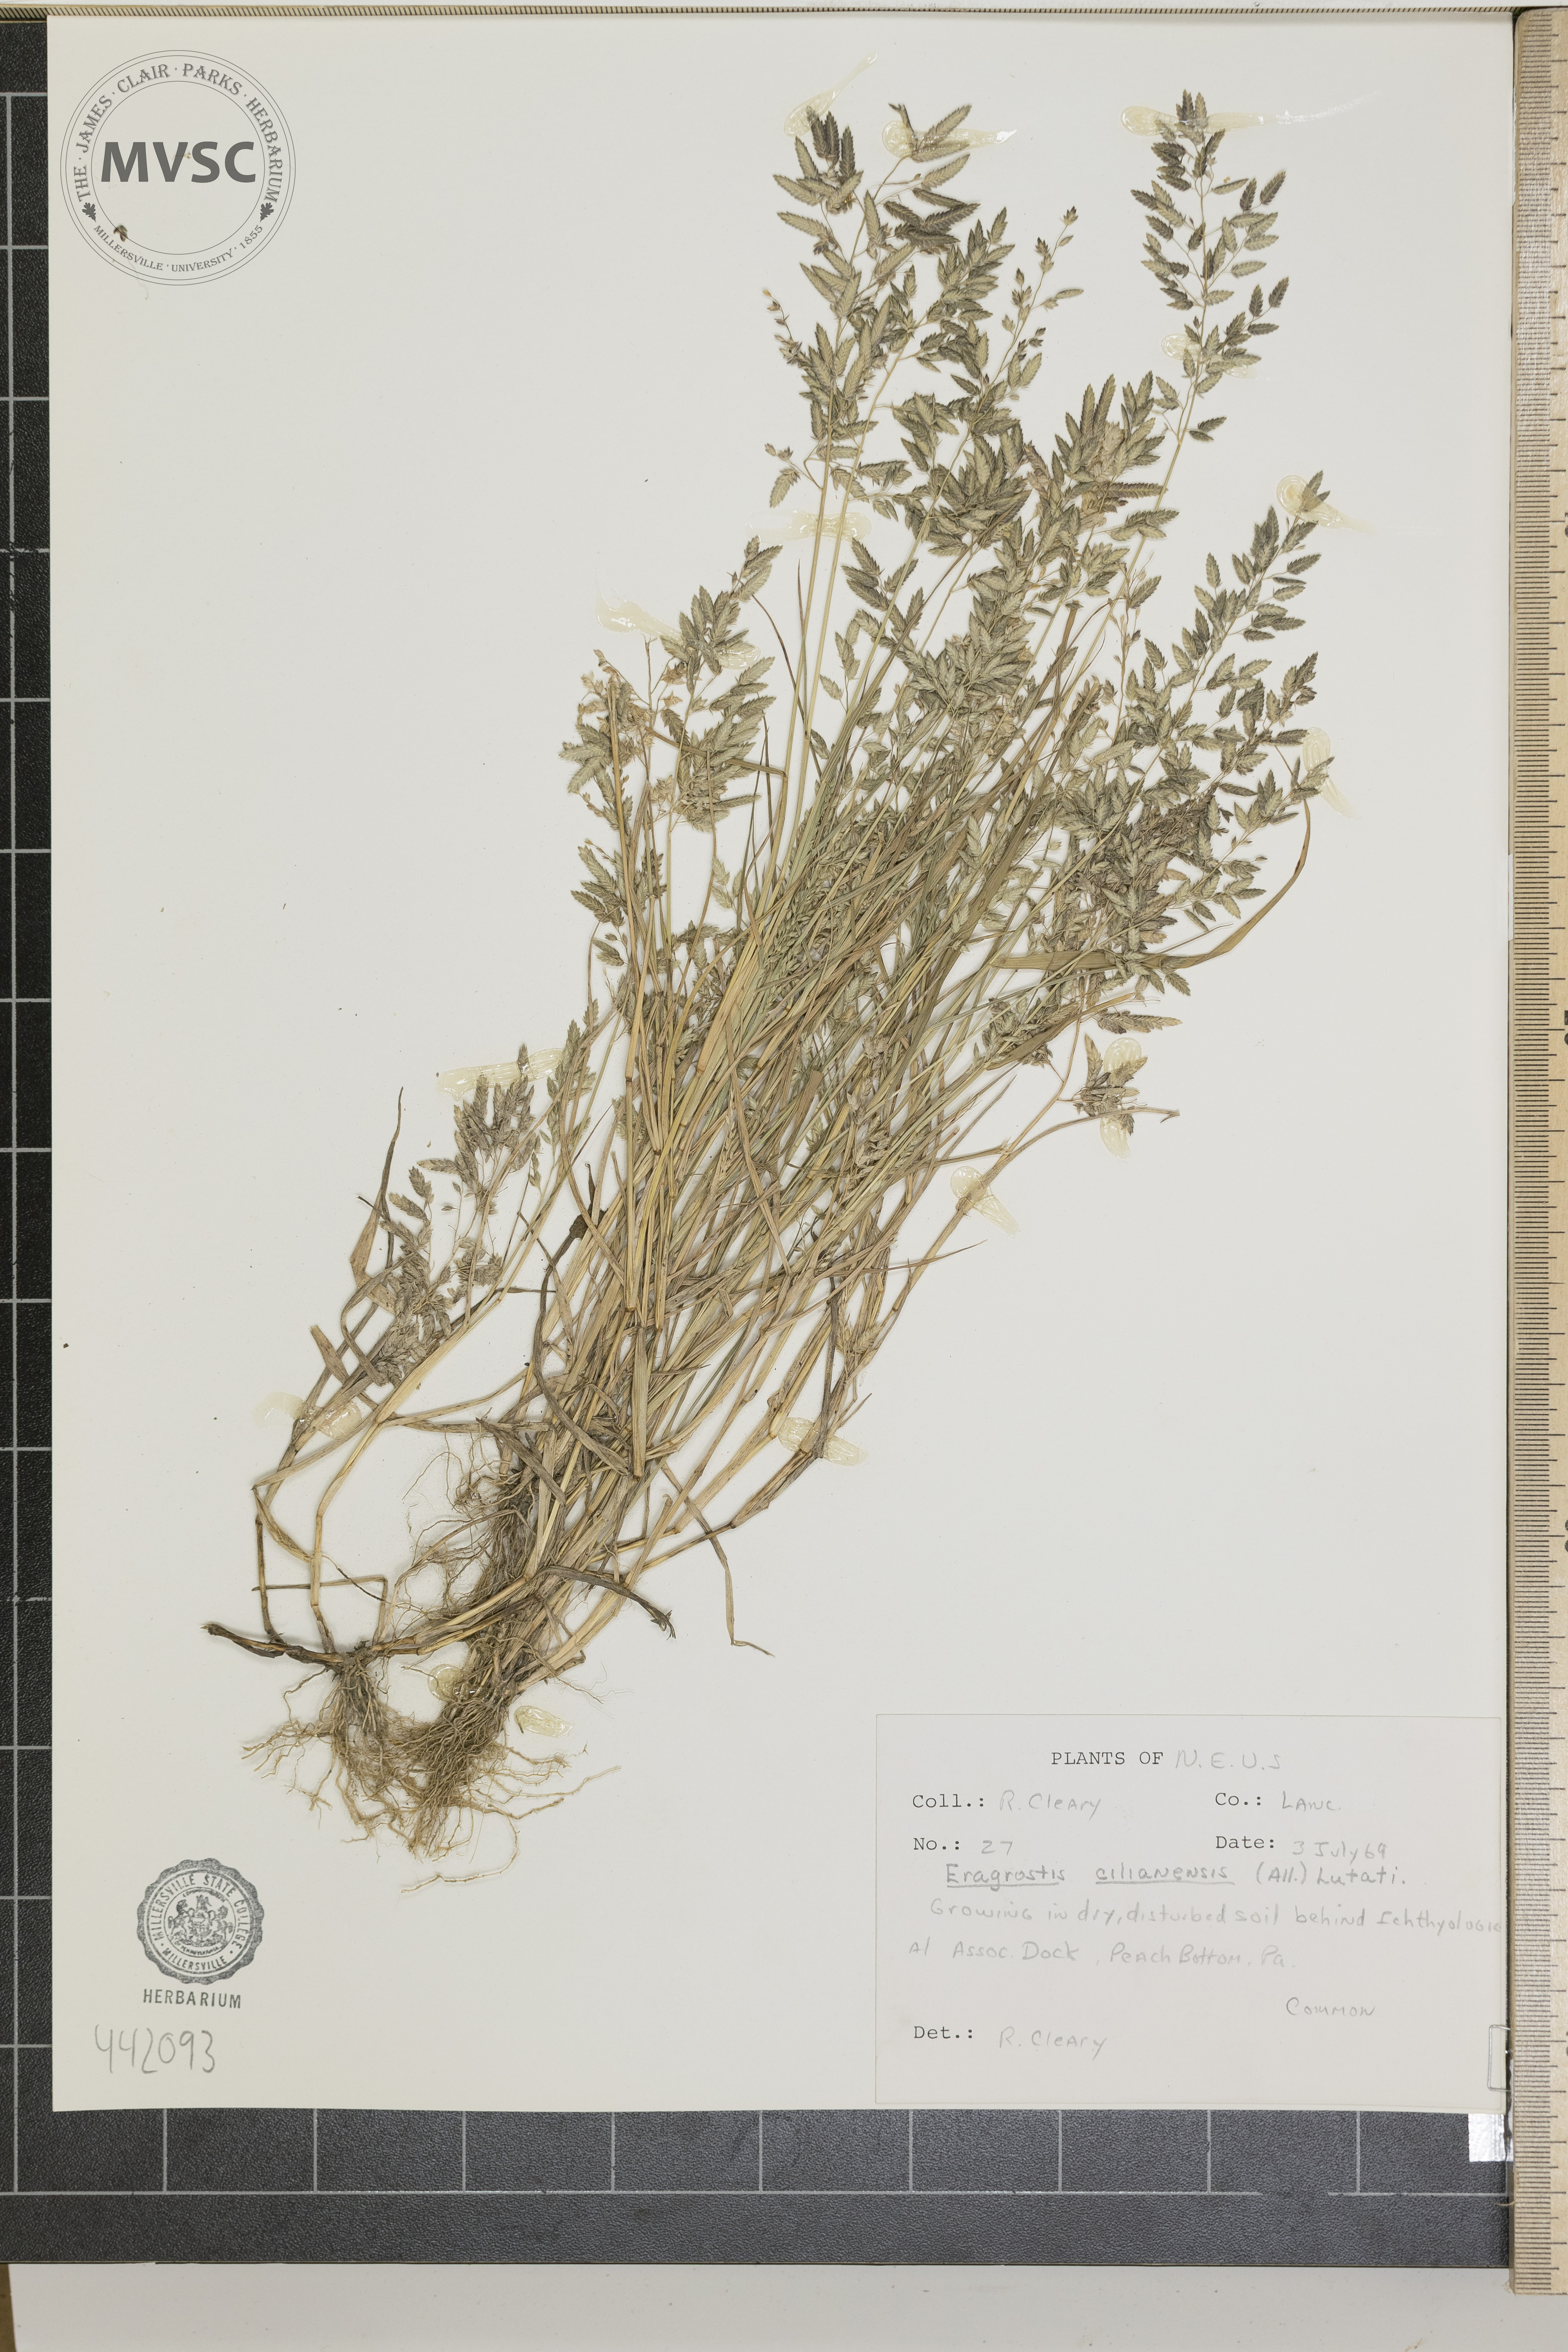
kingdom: Plantae
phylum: Tracheophyta
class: Liliopsida
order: Poales
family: Poaceae
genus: Eragrostis
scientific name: Eragrostis cilianensis
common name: Stinkgrass
